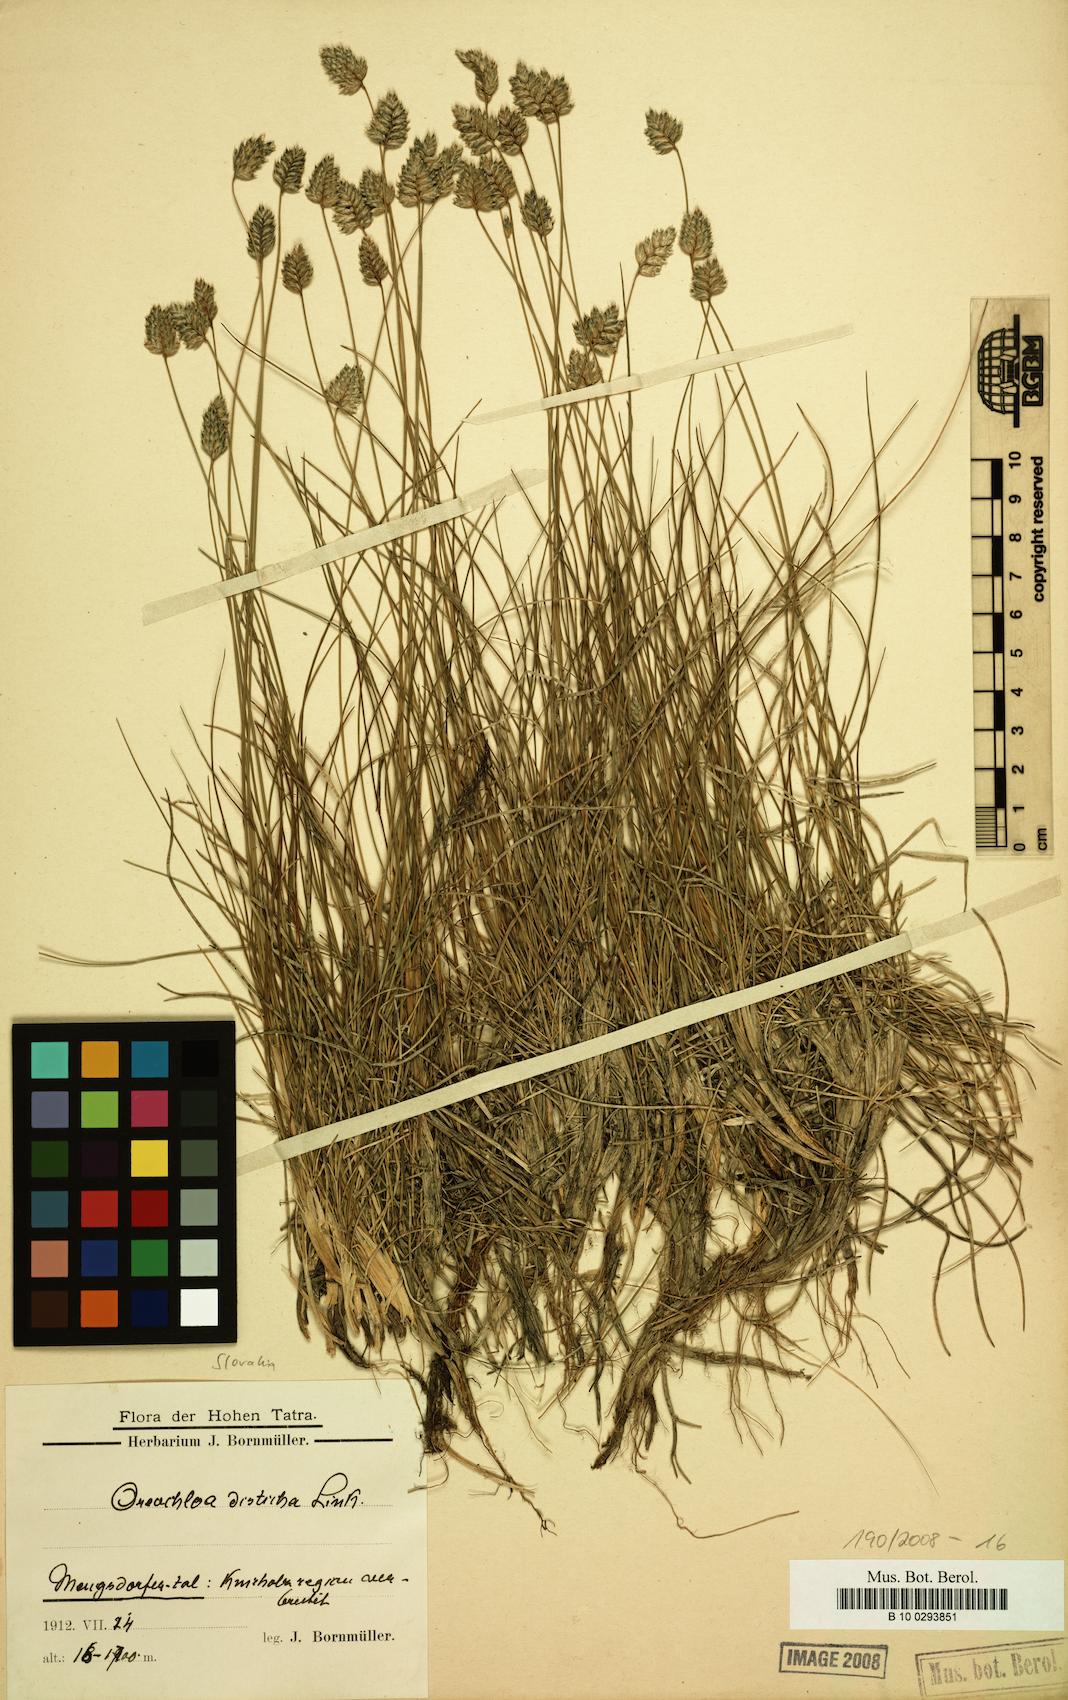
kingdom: Plantae
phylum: Tracheophyta
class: Liliopsida
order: Poales
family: Poaceae
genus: Oreochloa
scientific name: Oreochloa disticha
